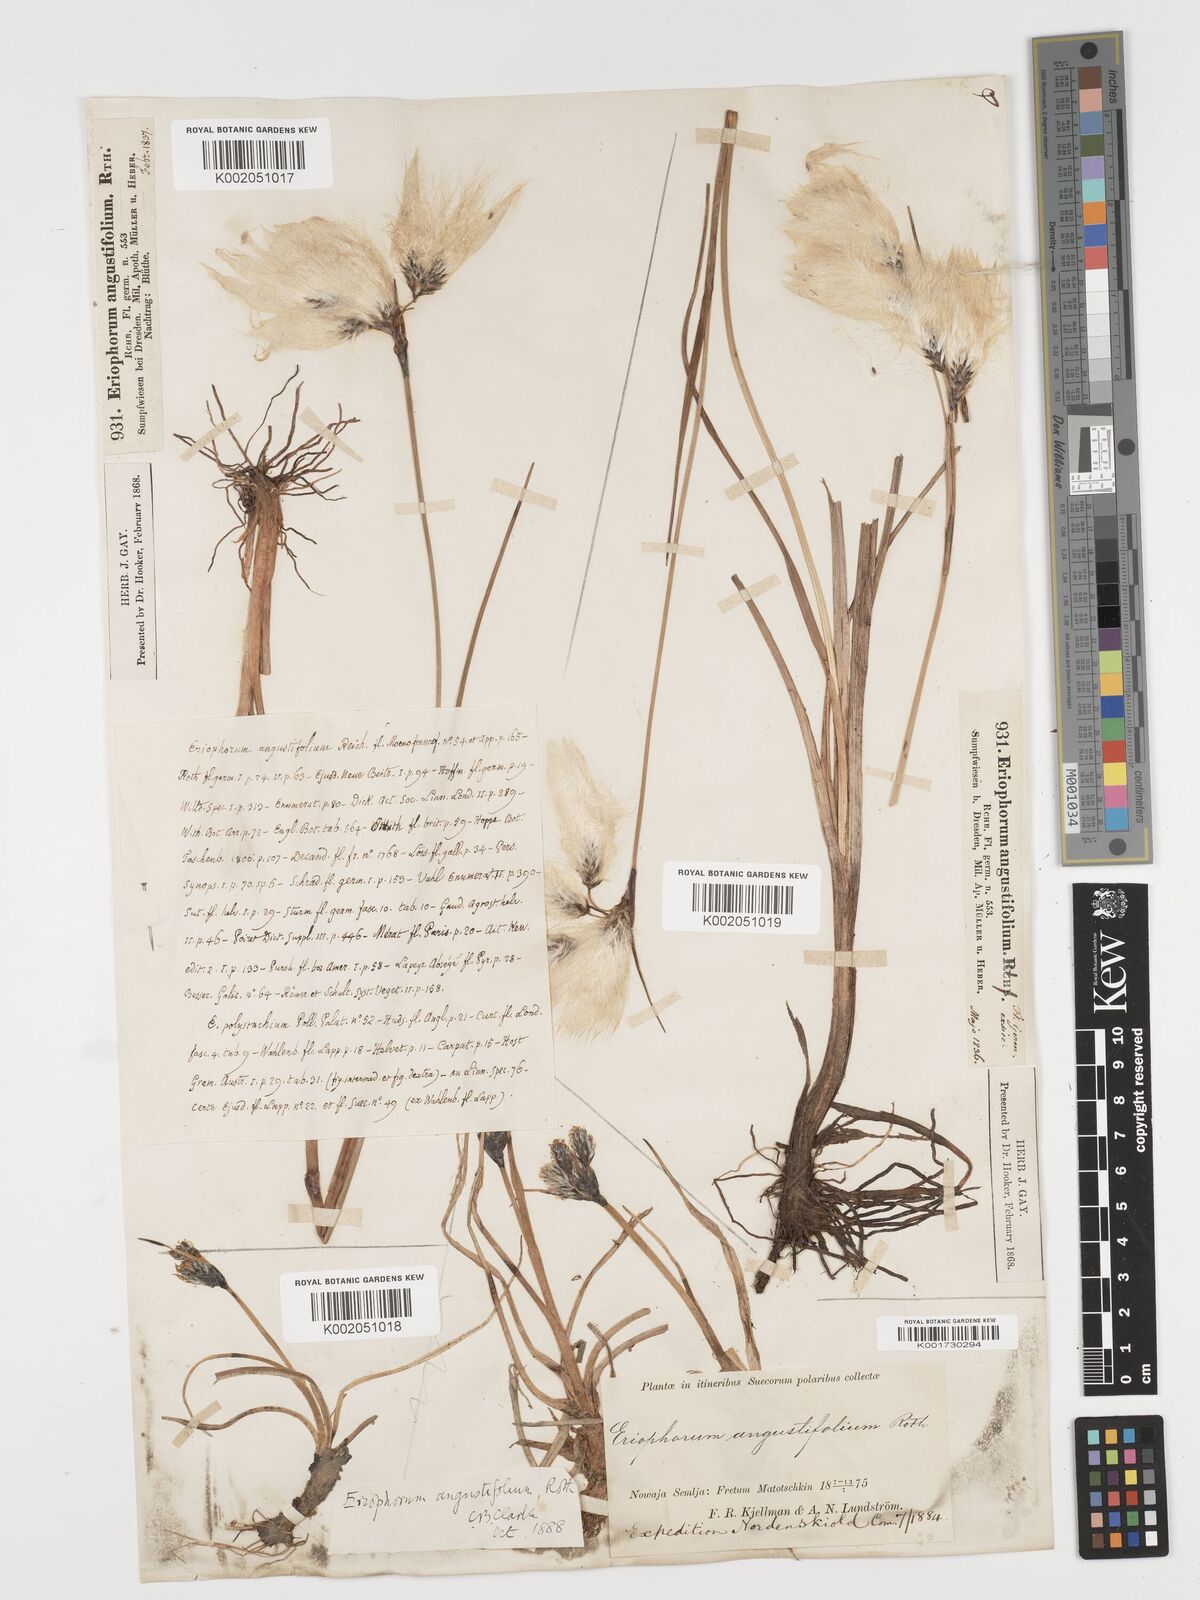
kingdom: Plantae
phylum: Tracheophyta
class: Liliopsida
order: Poales
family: Cyperaceae
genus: Eriophorum
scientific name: Eriophorum angustifolium
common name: Common cottongrass
